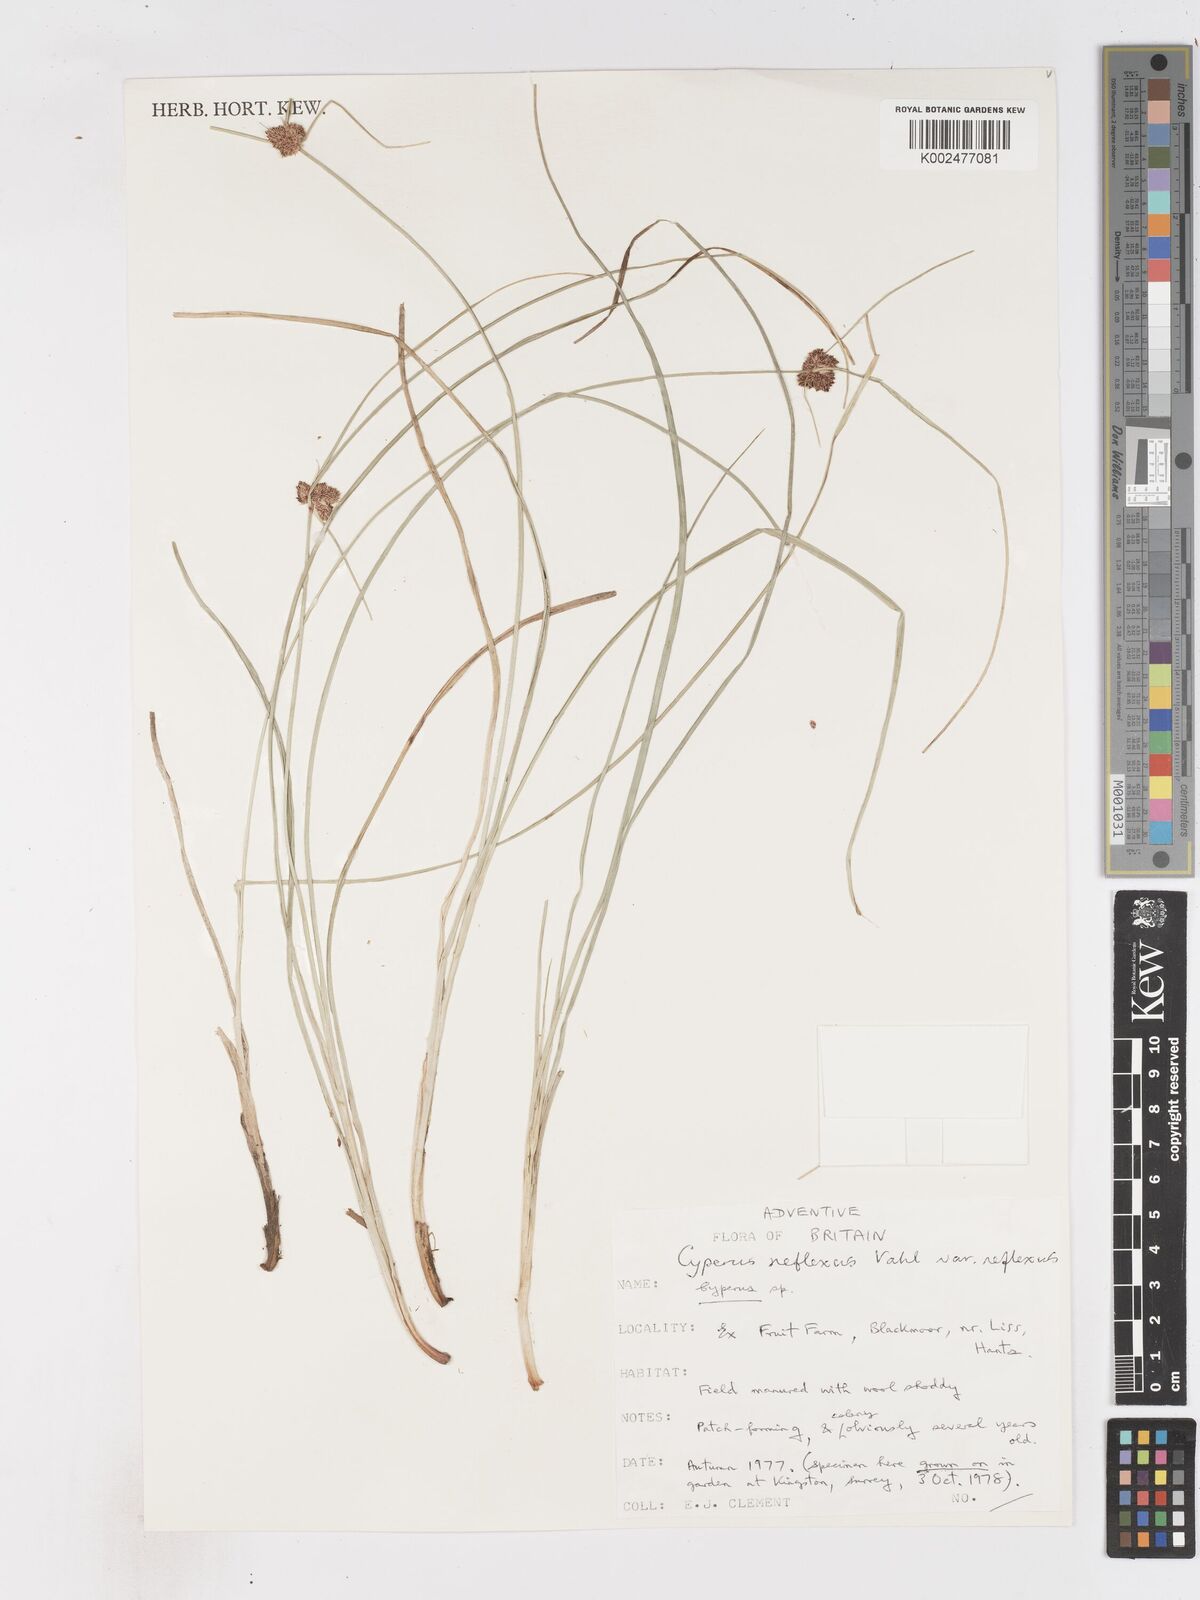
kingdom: Plantae
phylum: Tracheophyta
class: Liliopsida
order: Poales
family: Cyperaceae
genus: Cyperus
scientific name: Cyperus reflexus
